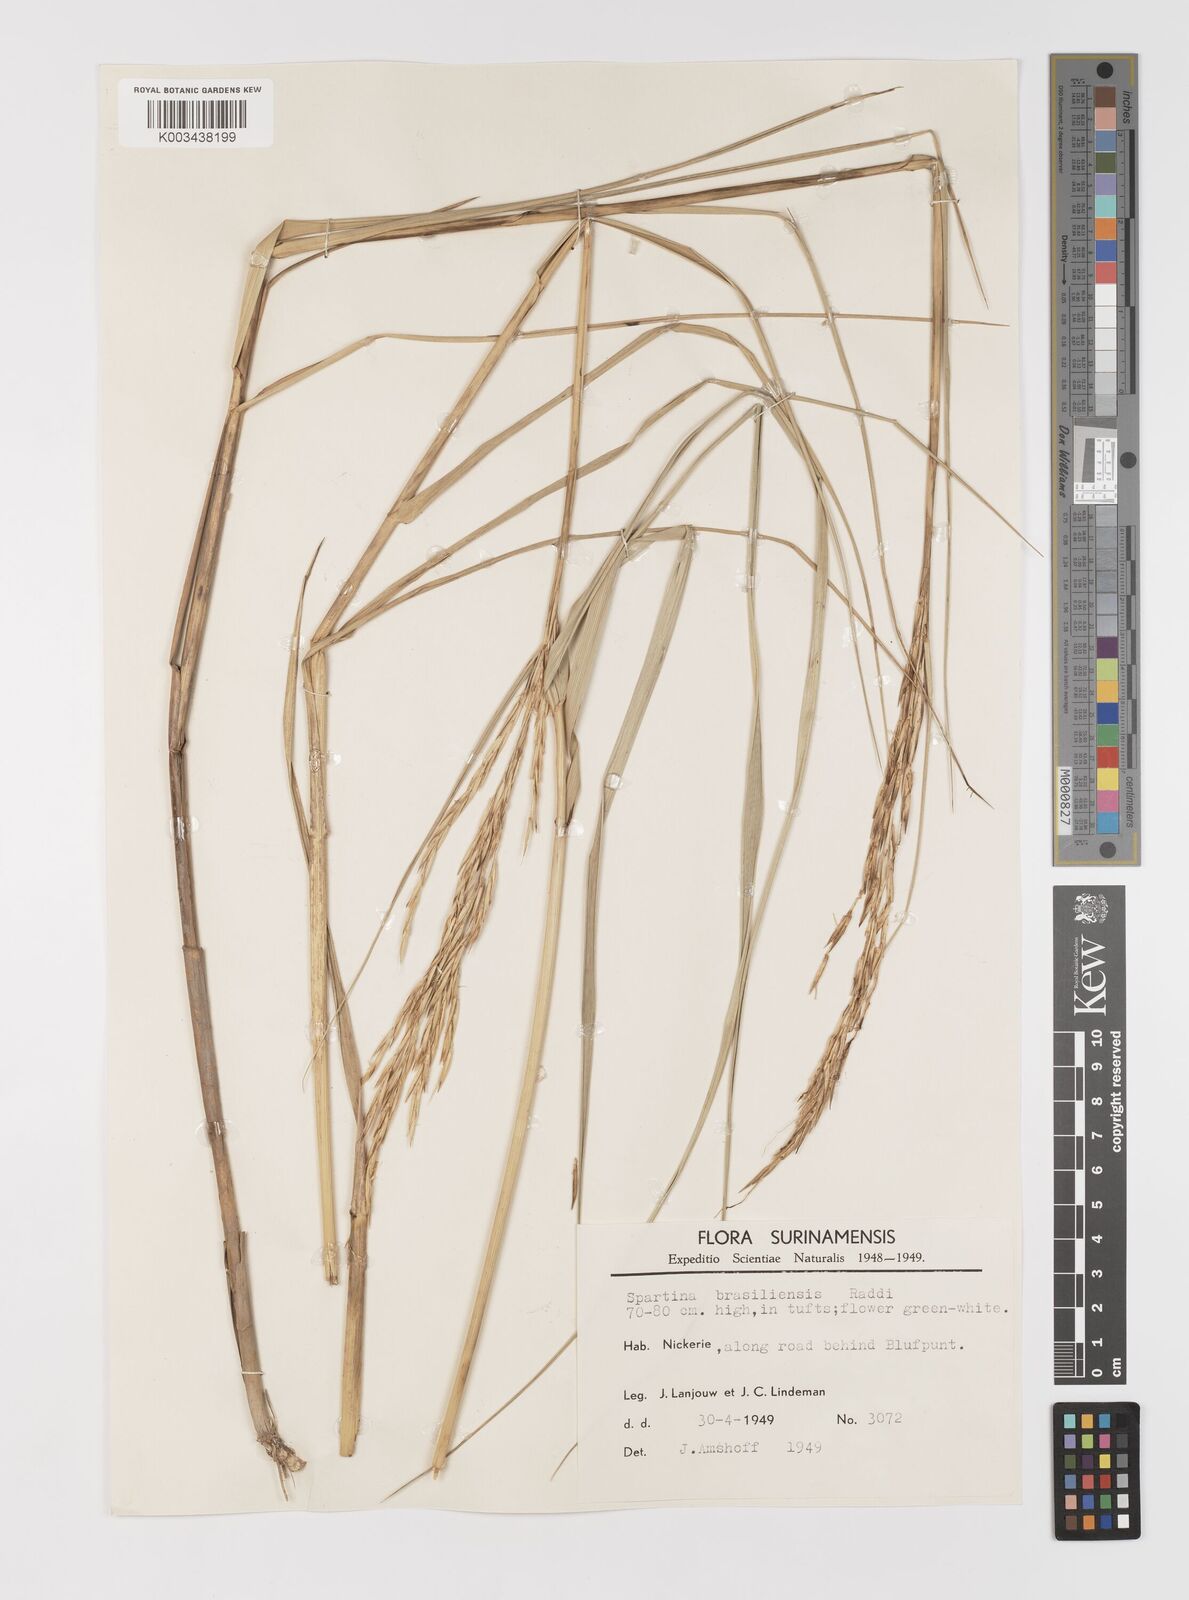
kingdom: Plantae
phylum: Tracheophyta
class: Liliopsida
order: Poales
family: Poaceae
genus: Sporobolus
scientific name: Sporobolus alterniflorus
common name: Atlantic cordgrass
